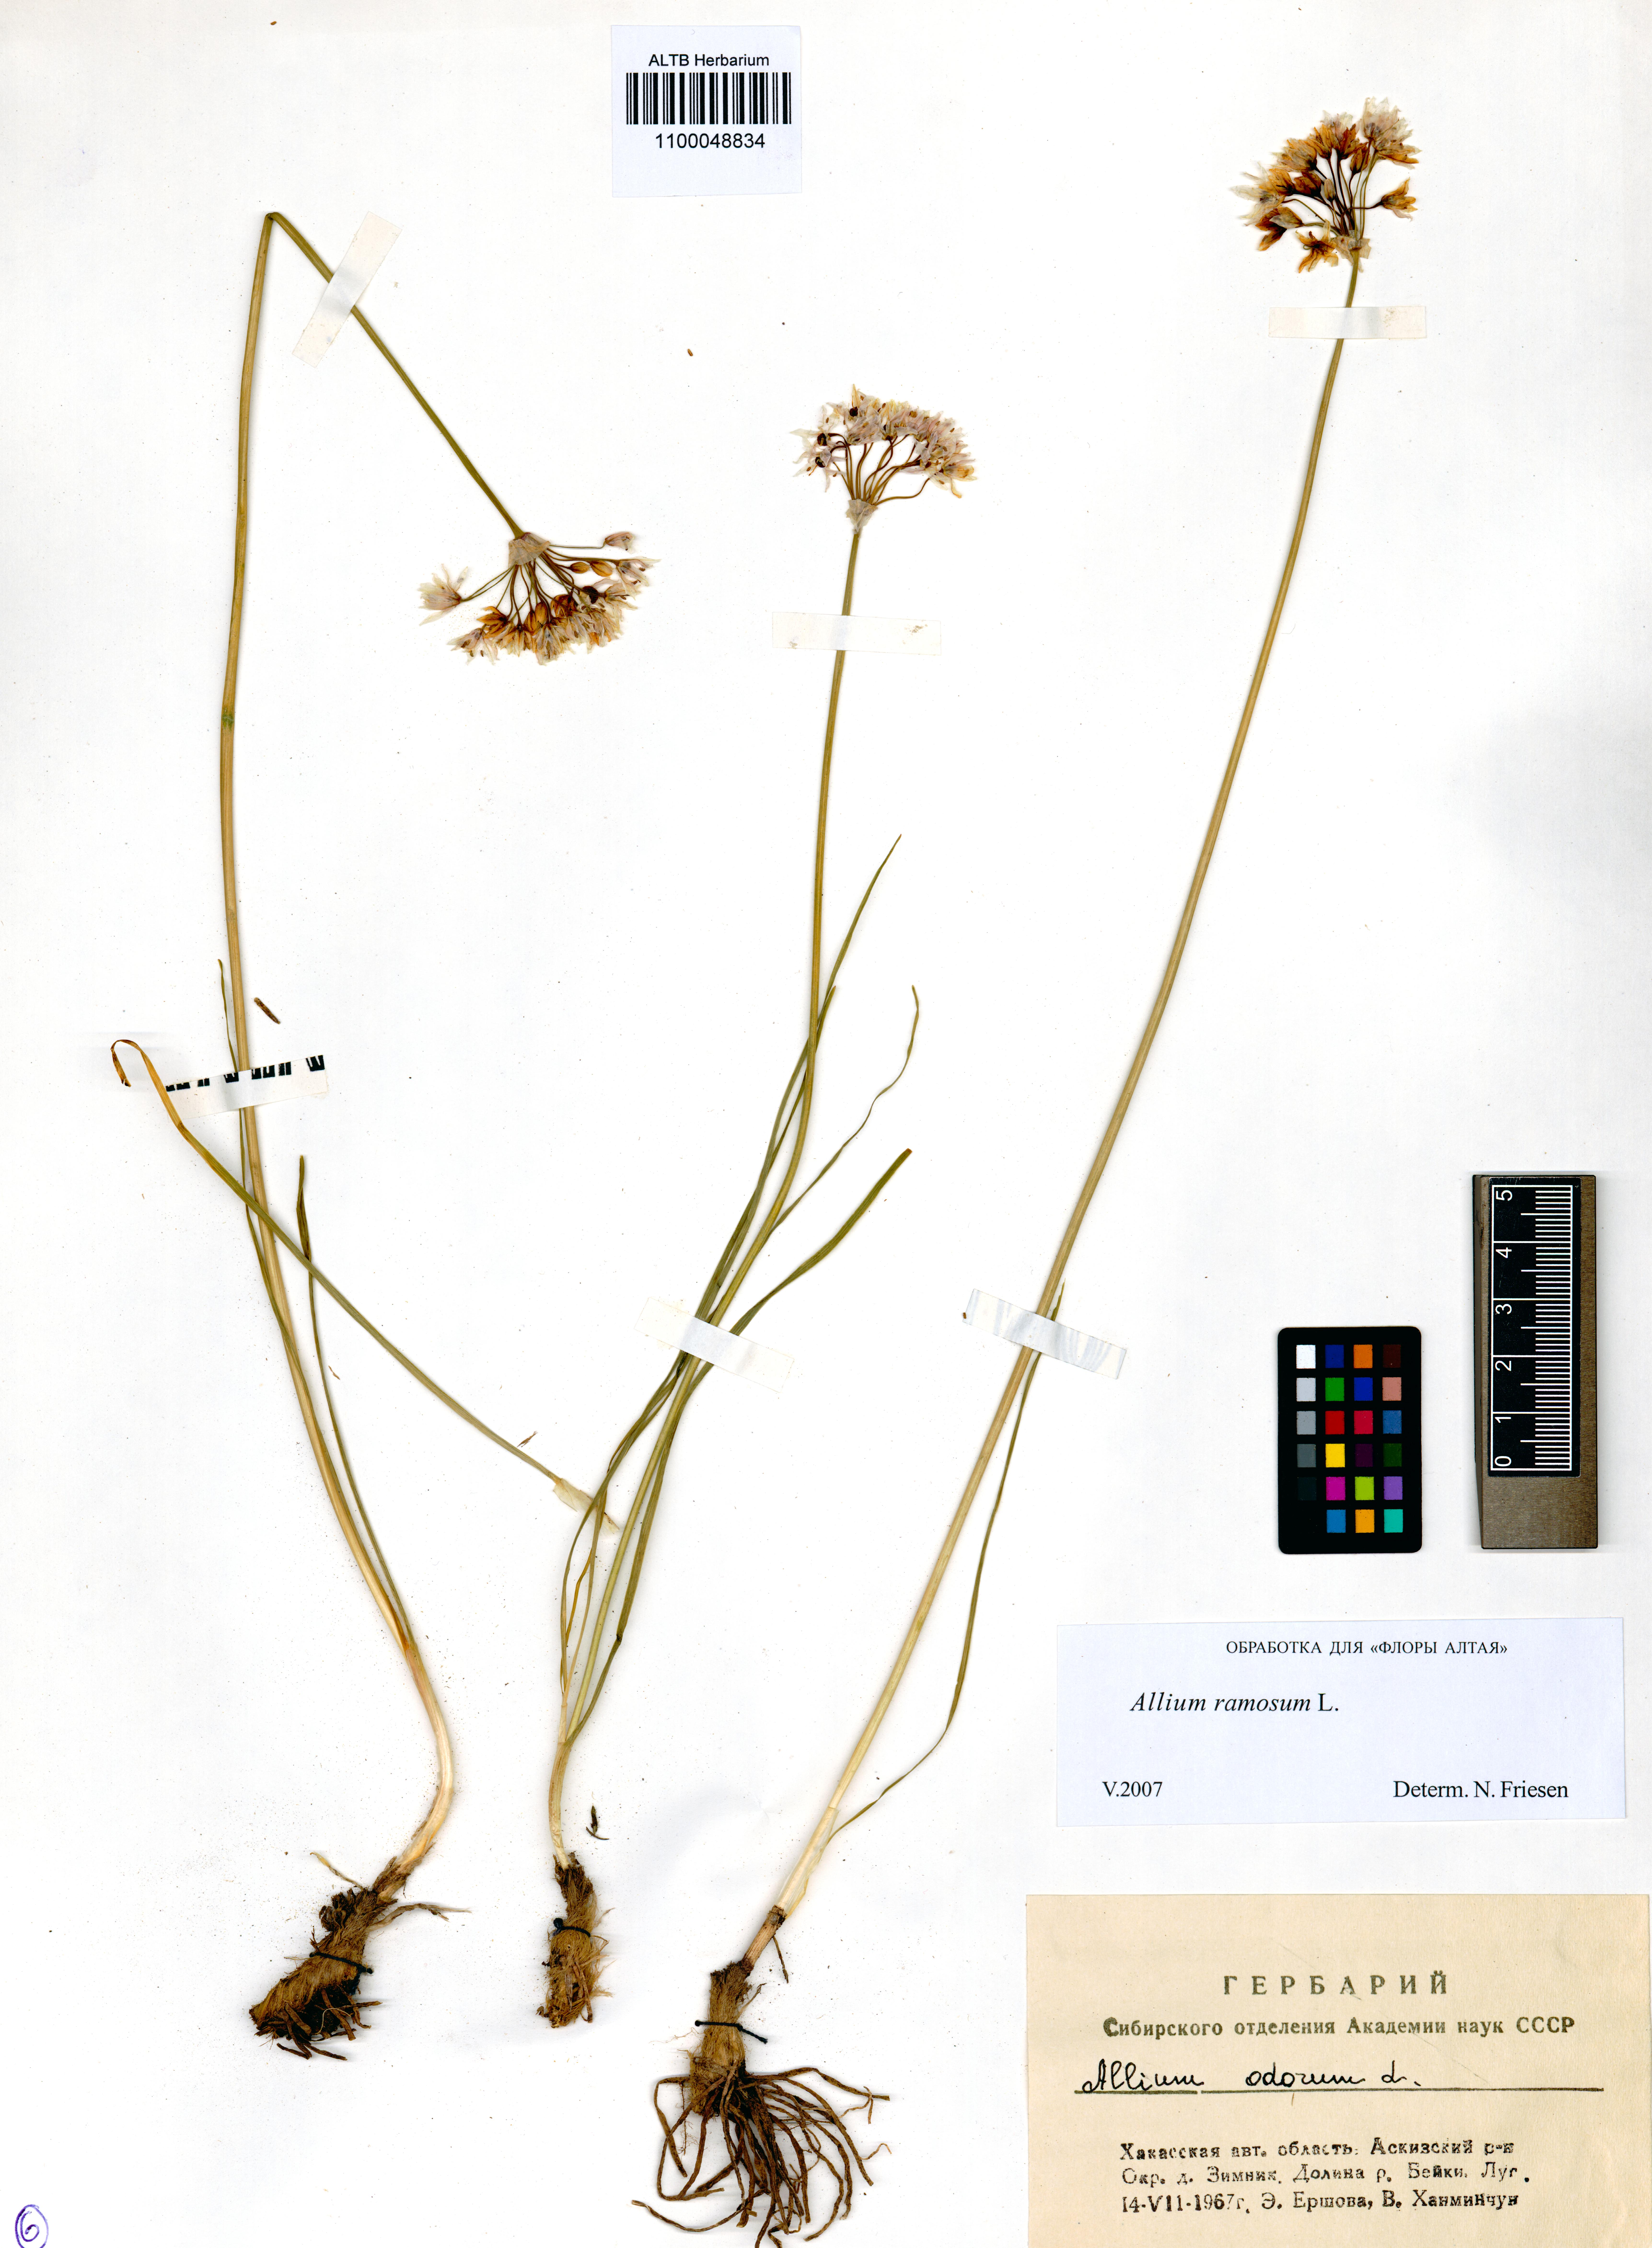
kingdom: Plantae
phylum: Tracheophyta
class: Liliopsida
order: Asparagales
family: Amaryllidaceae
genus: Allium
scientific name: Allium ramosum
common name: Fragrant garlic
